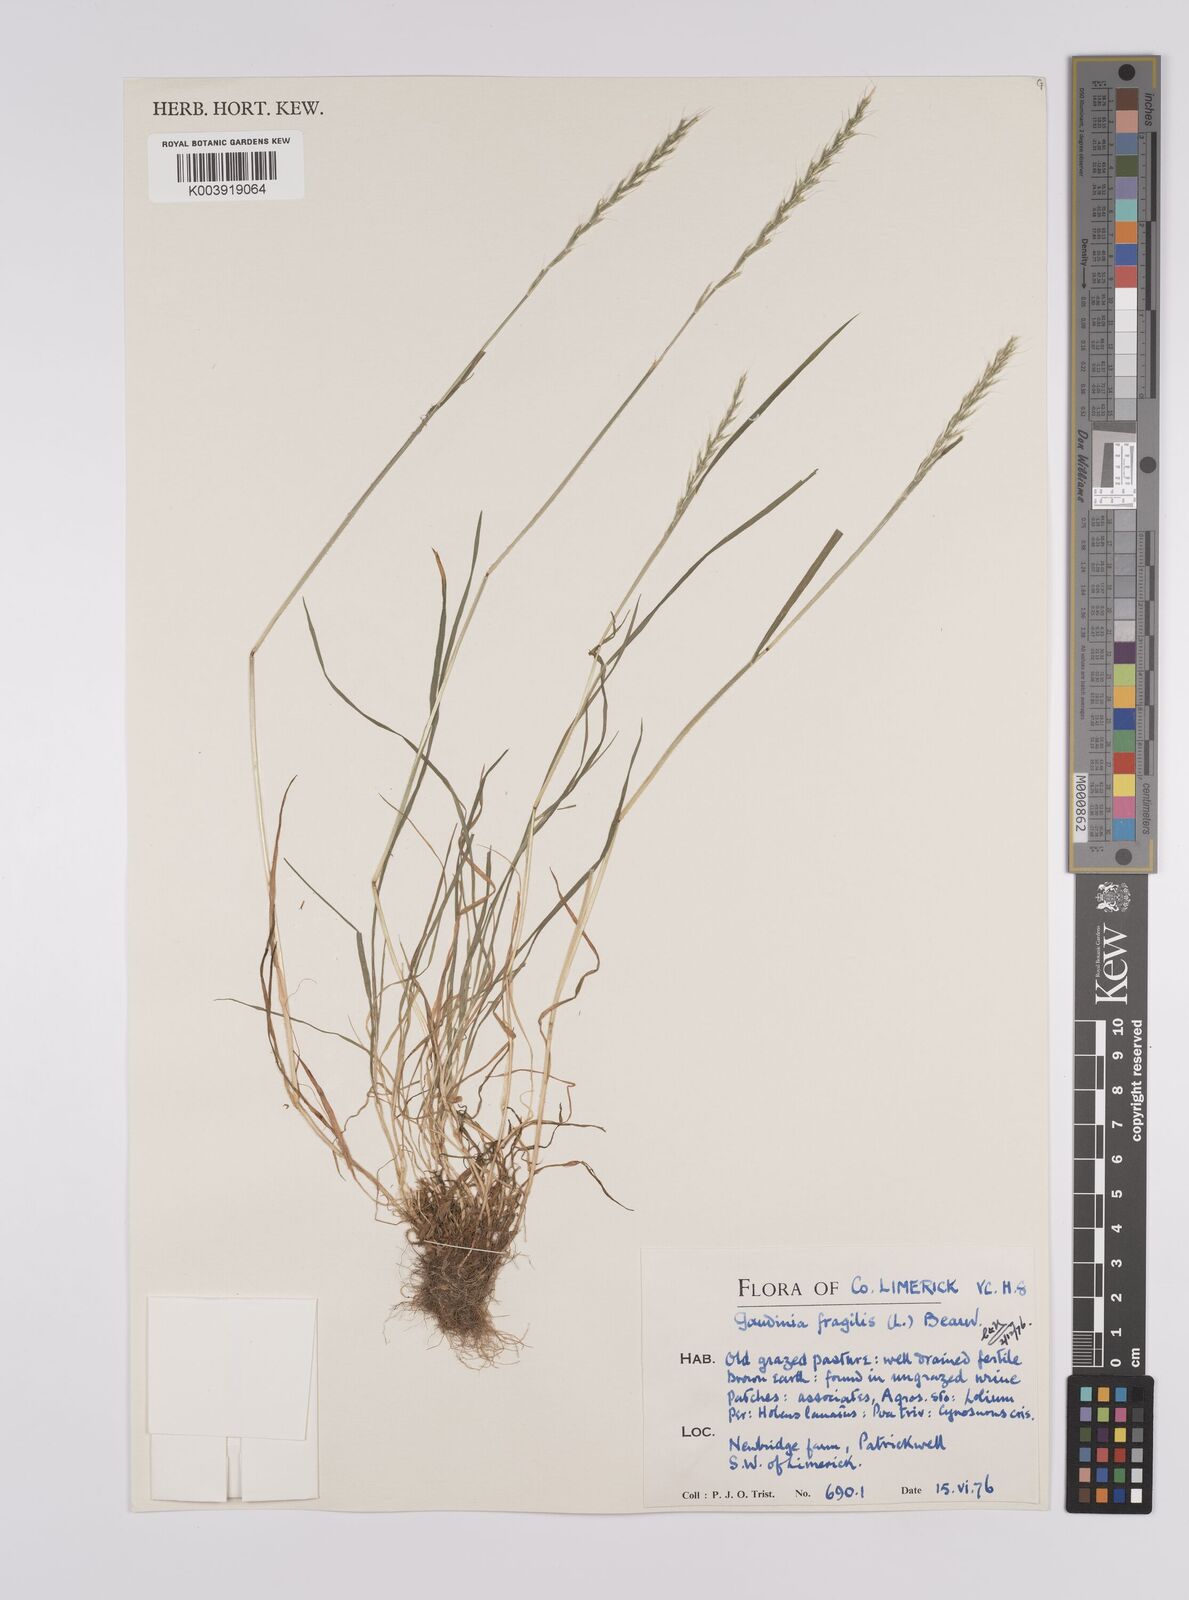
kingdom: Plantae
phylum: Tracheophyta
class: Liliopsida
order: Poales
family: Poaceae
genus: Gaudinia
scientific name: Gaudinia fragilis
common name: French oat-grass
